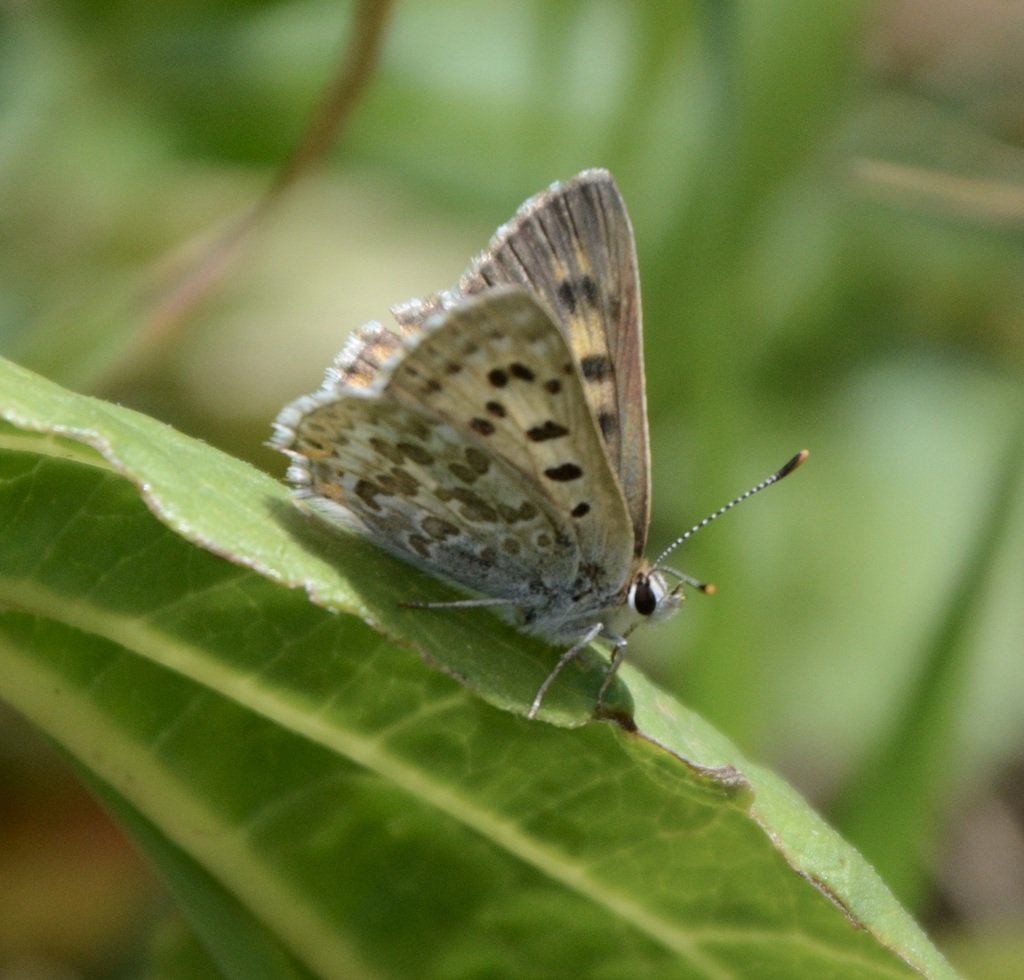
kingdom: Animalia
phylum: Arthropoda
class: Insecta
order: Lepidoptera
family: Lycaenidae
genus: Lycaena
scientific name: Lycaena editha
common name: Edith's Copper
